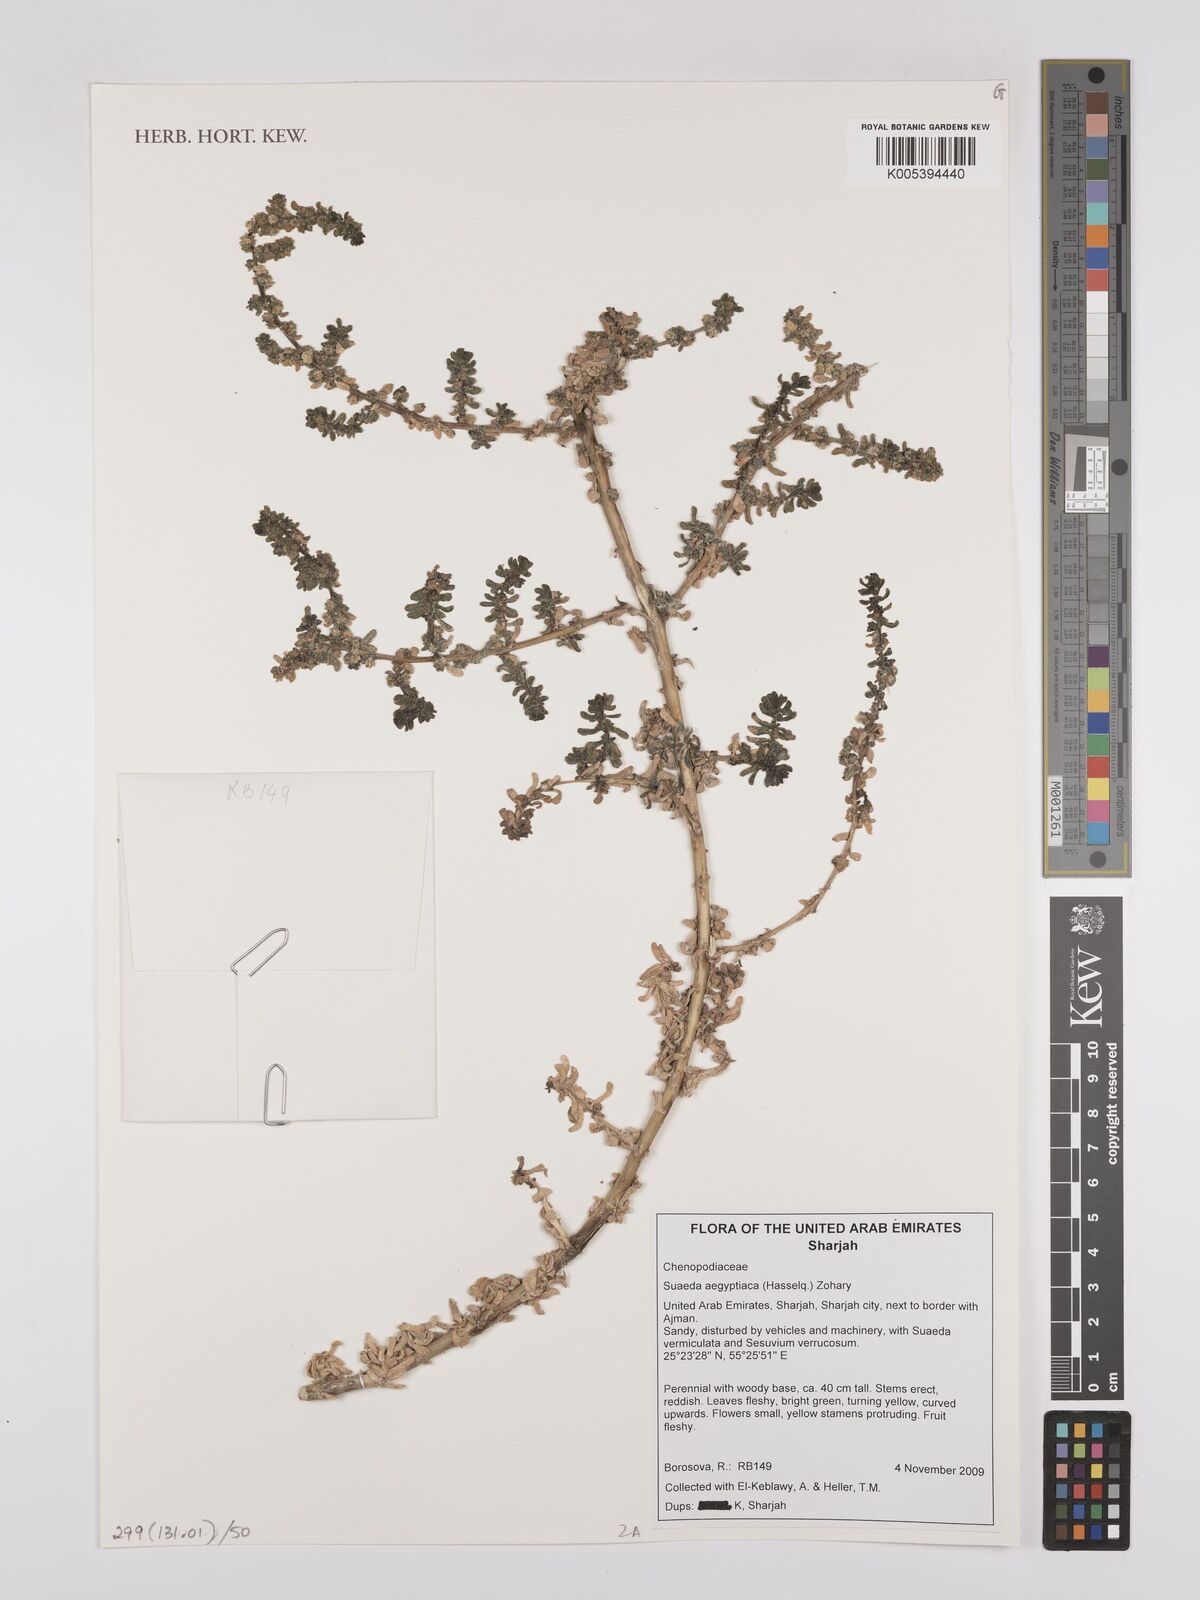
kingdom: Plantae
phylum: Tracheophyta
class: Magnoliopsida
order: Caryophyllales
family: Amaranthaceae
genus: Suaeda
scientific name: Suaeda aegyptiaca
